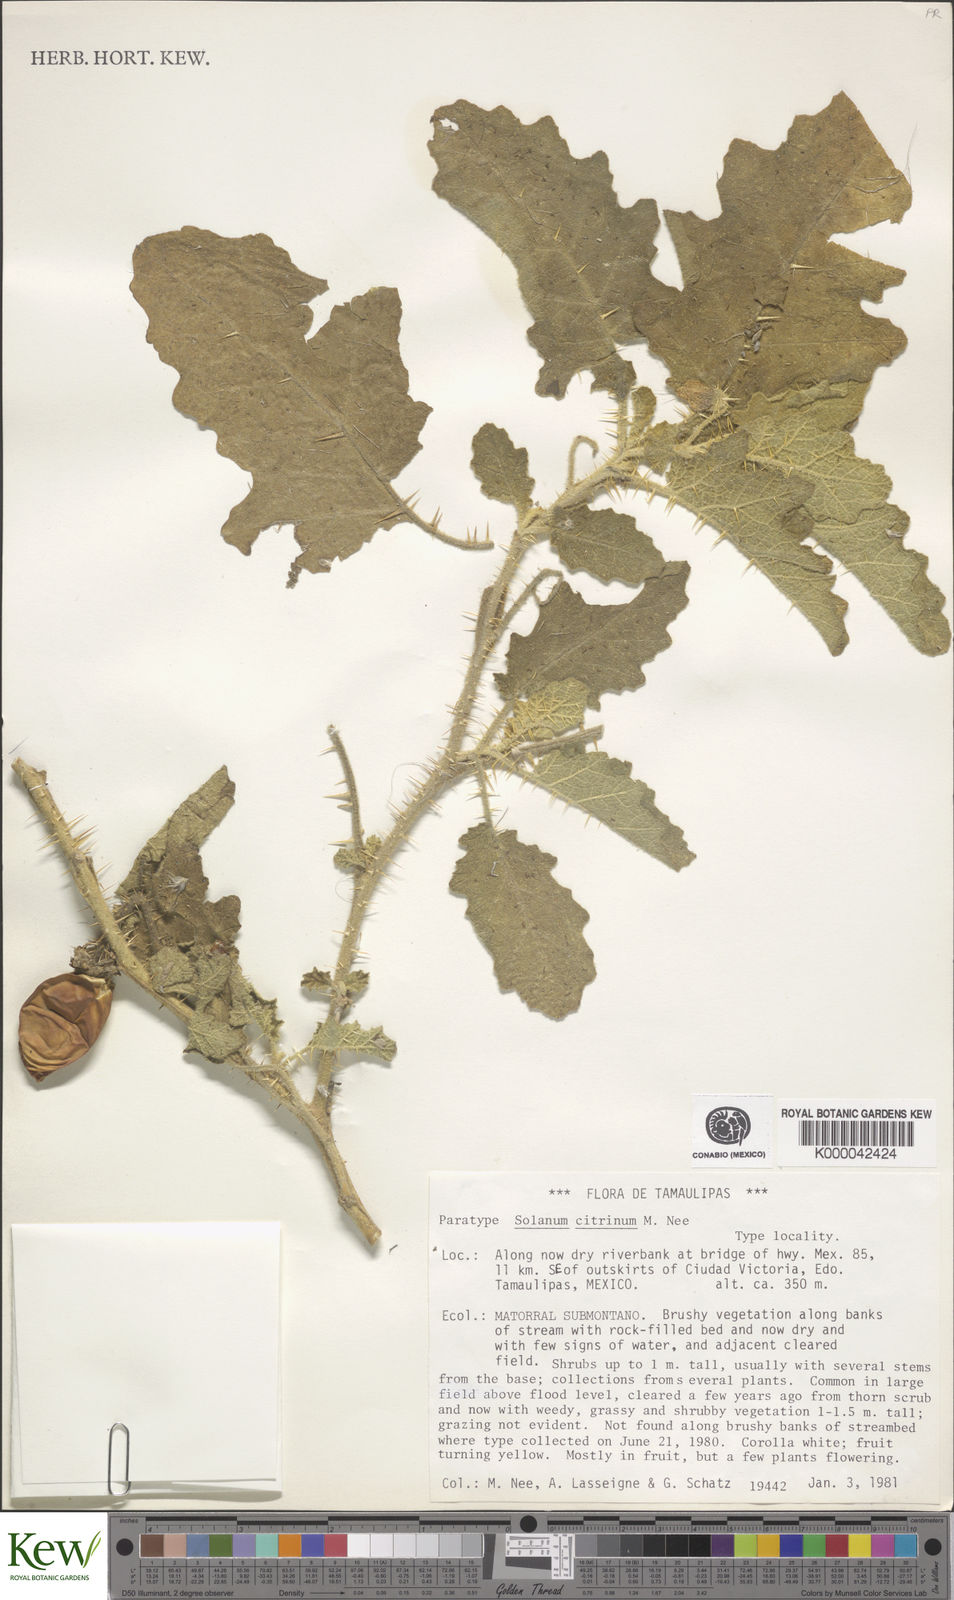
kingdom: Plantae
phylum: Tracheophyta
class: Magnoliopsida
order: Solanales
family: Solanaceae
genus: Solanum
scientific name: Solanum citrinum
